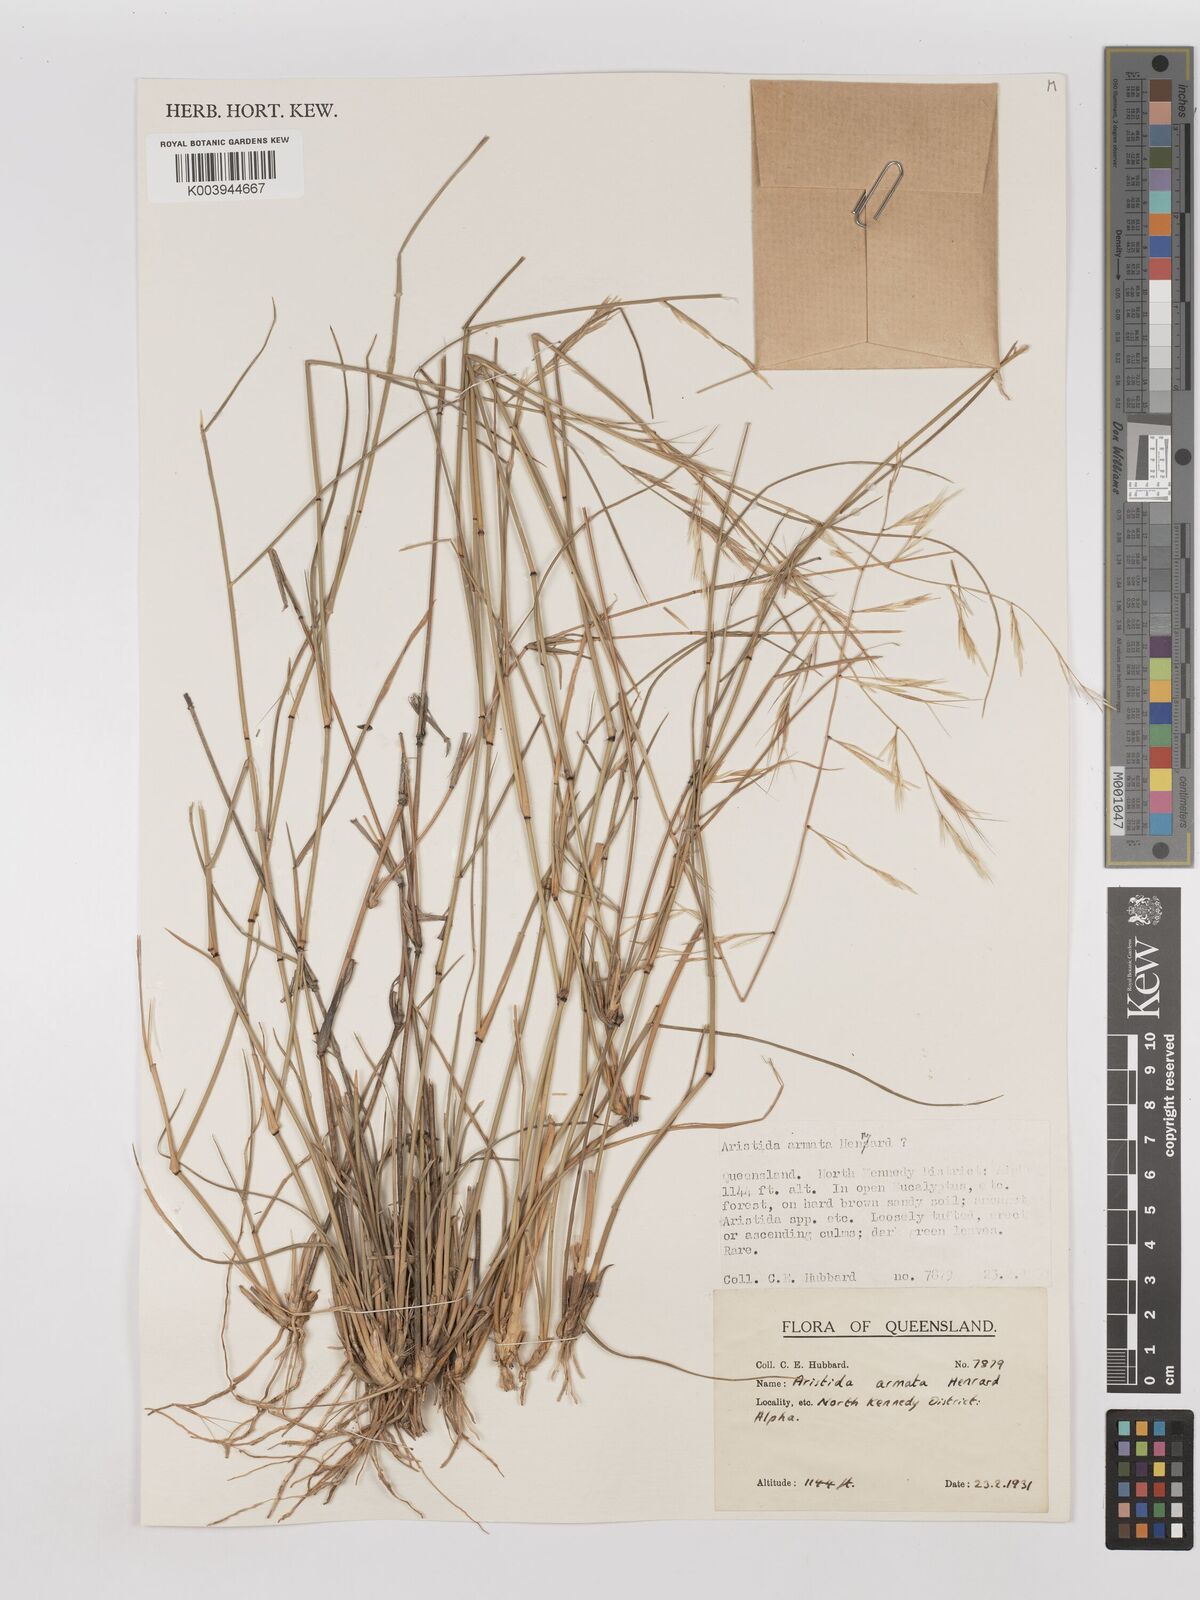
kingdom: Plantae
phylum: Tracheophyta
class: Liliopsida
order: Poales
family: Poaceae
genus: Aristida
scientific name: Aristida calycina
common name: Dark wire grass
